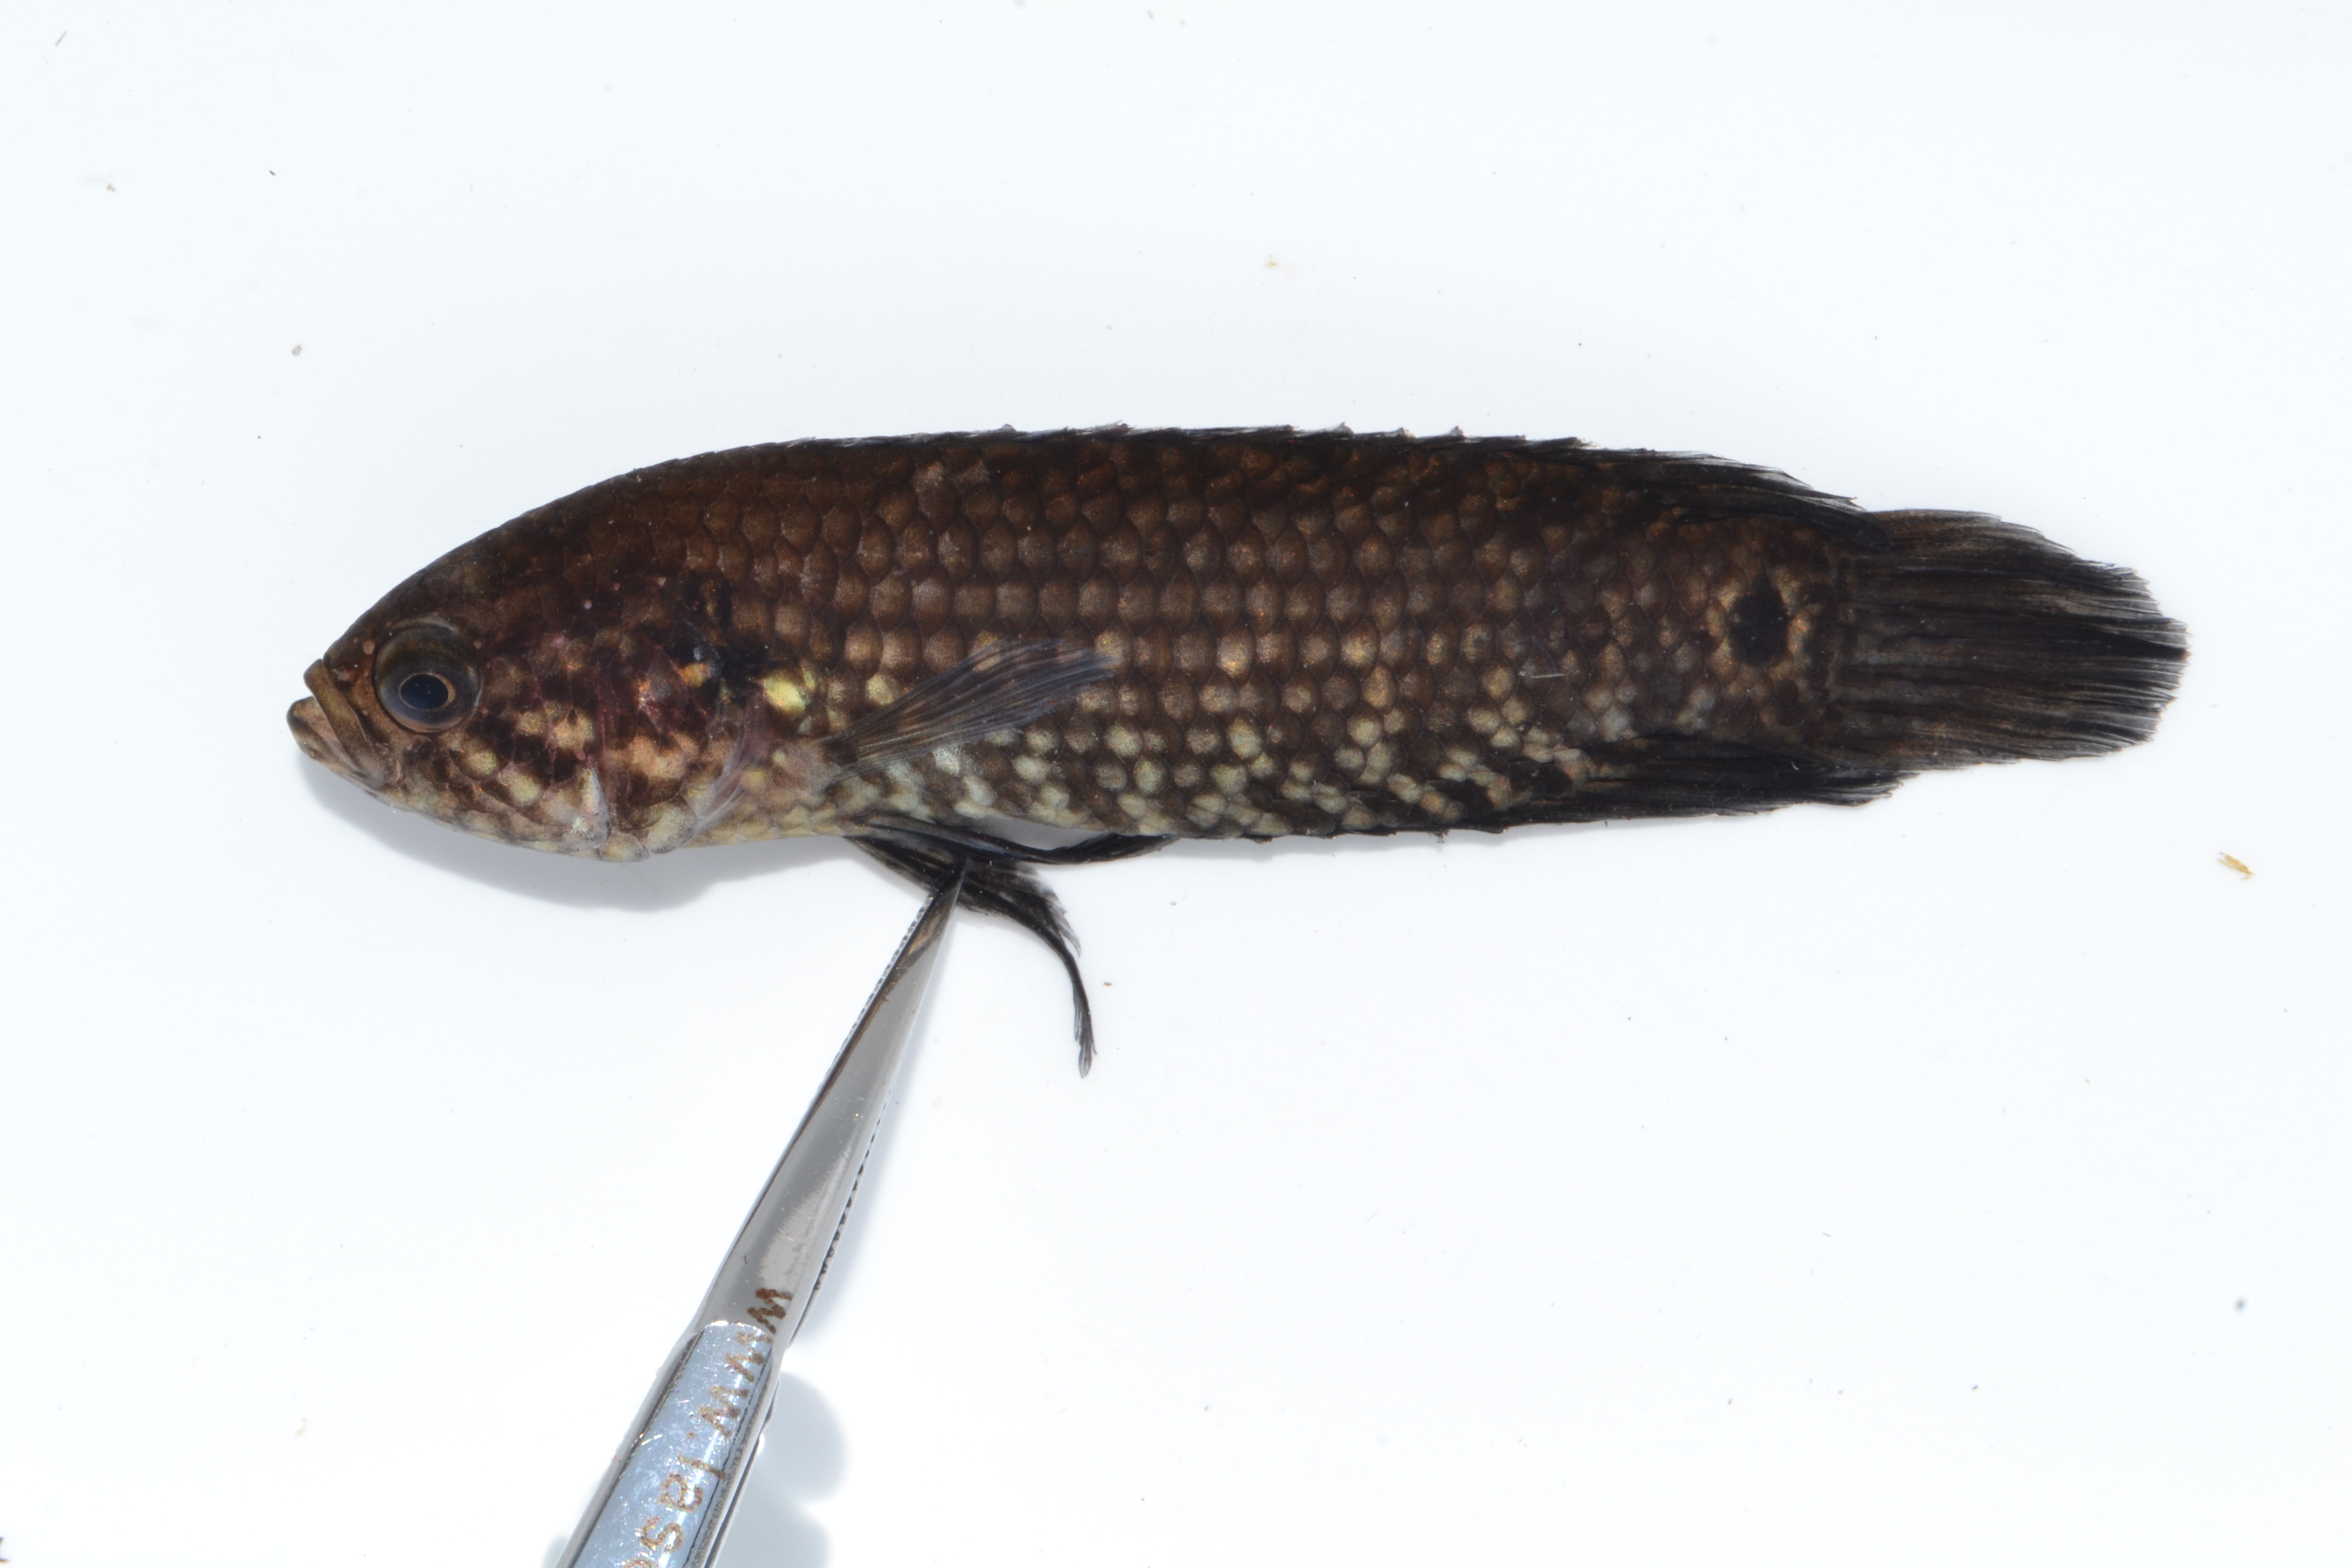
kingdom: Animalia
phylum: Chordata
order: Perciformes
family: Anabantidae
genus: Microctenopoma
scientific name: Microctenopoma steveboyesi
